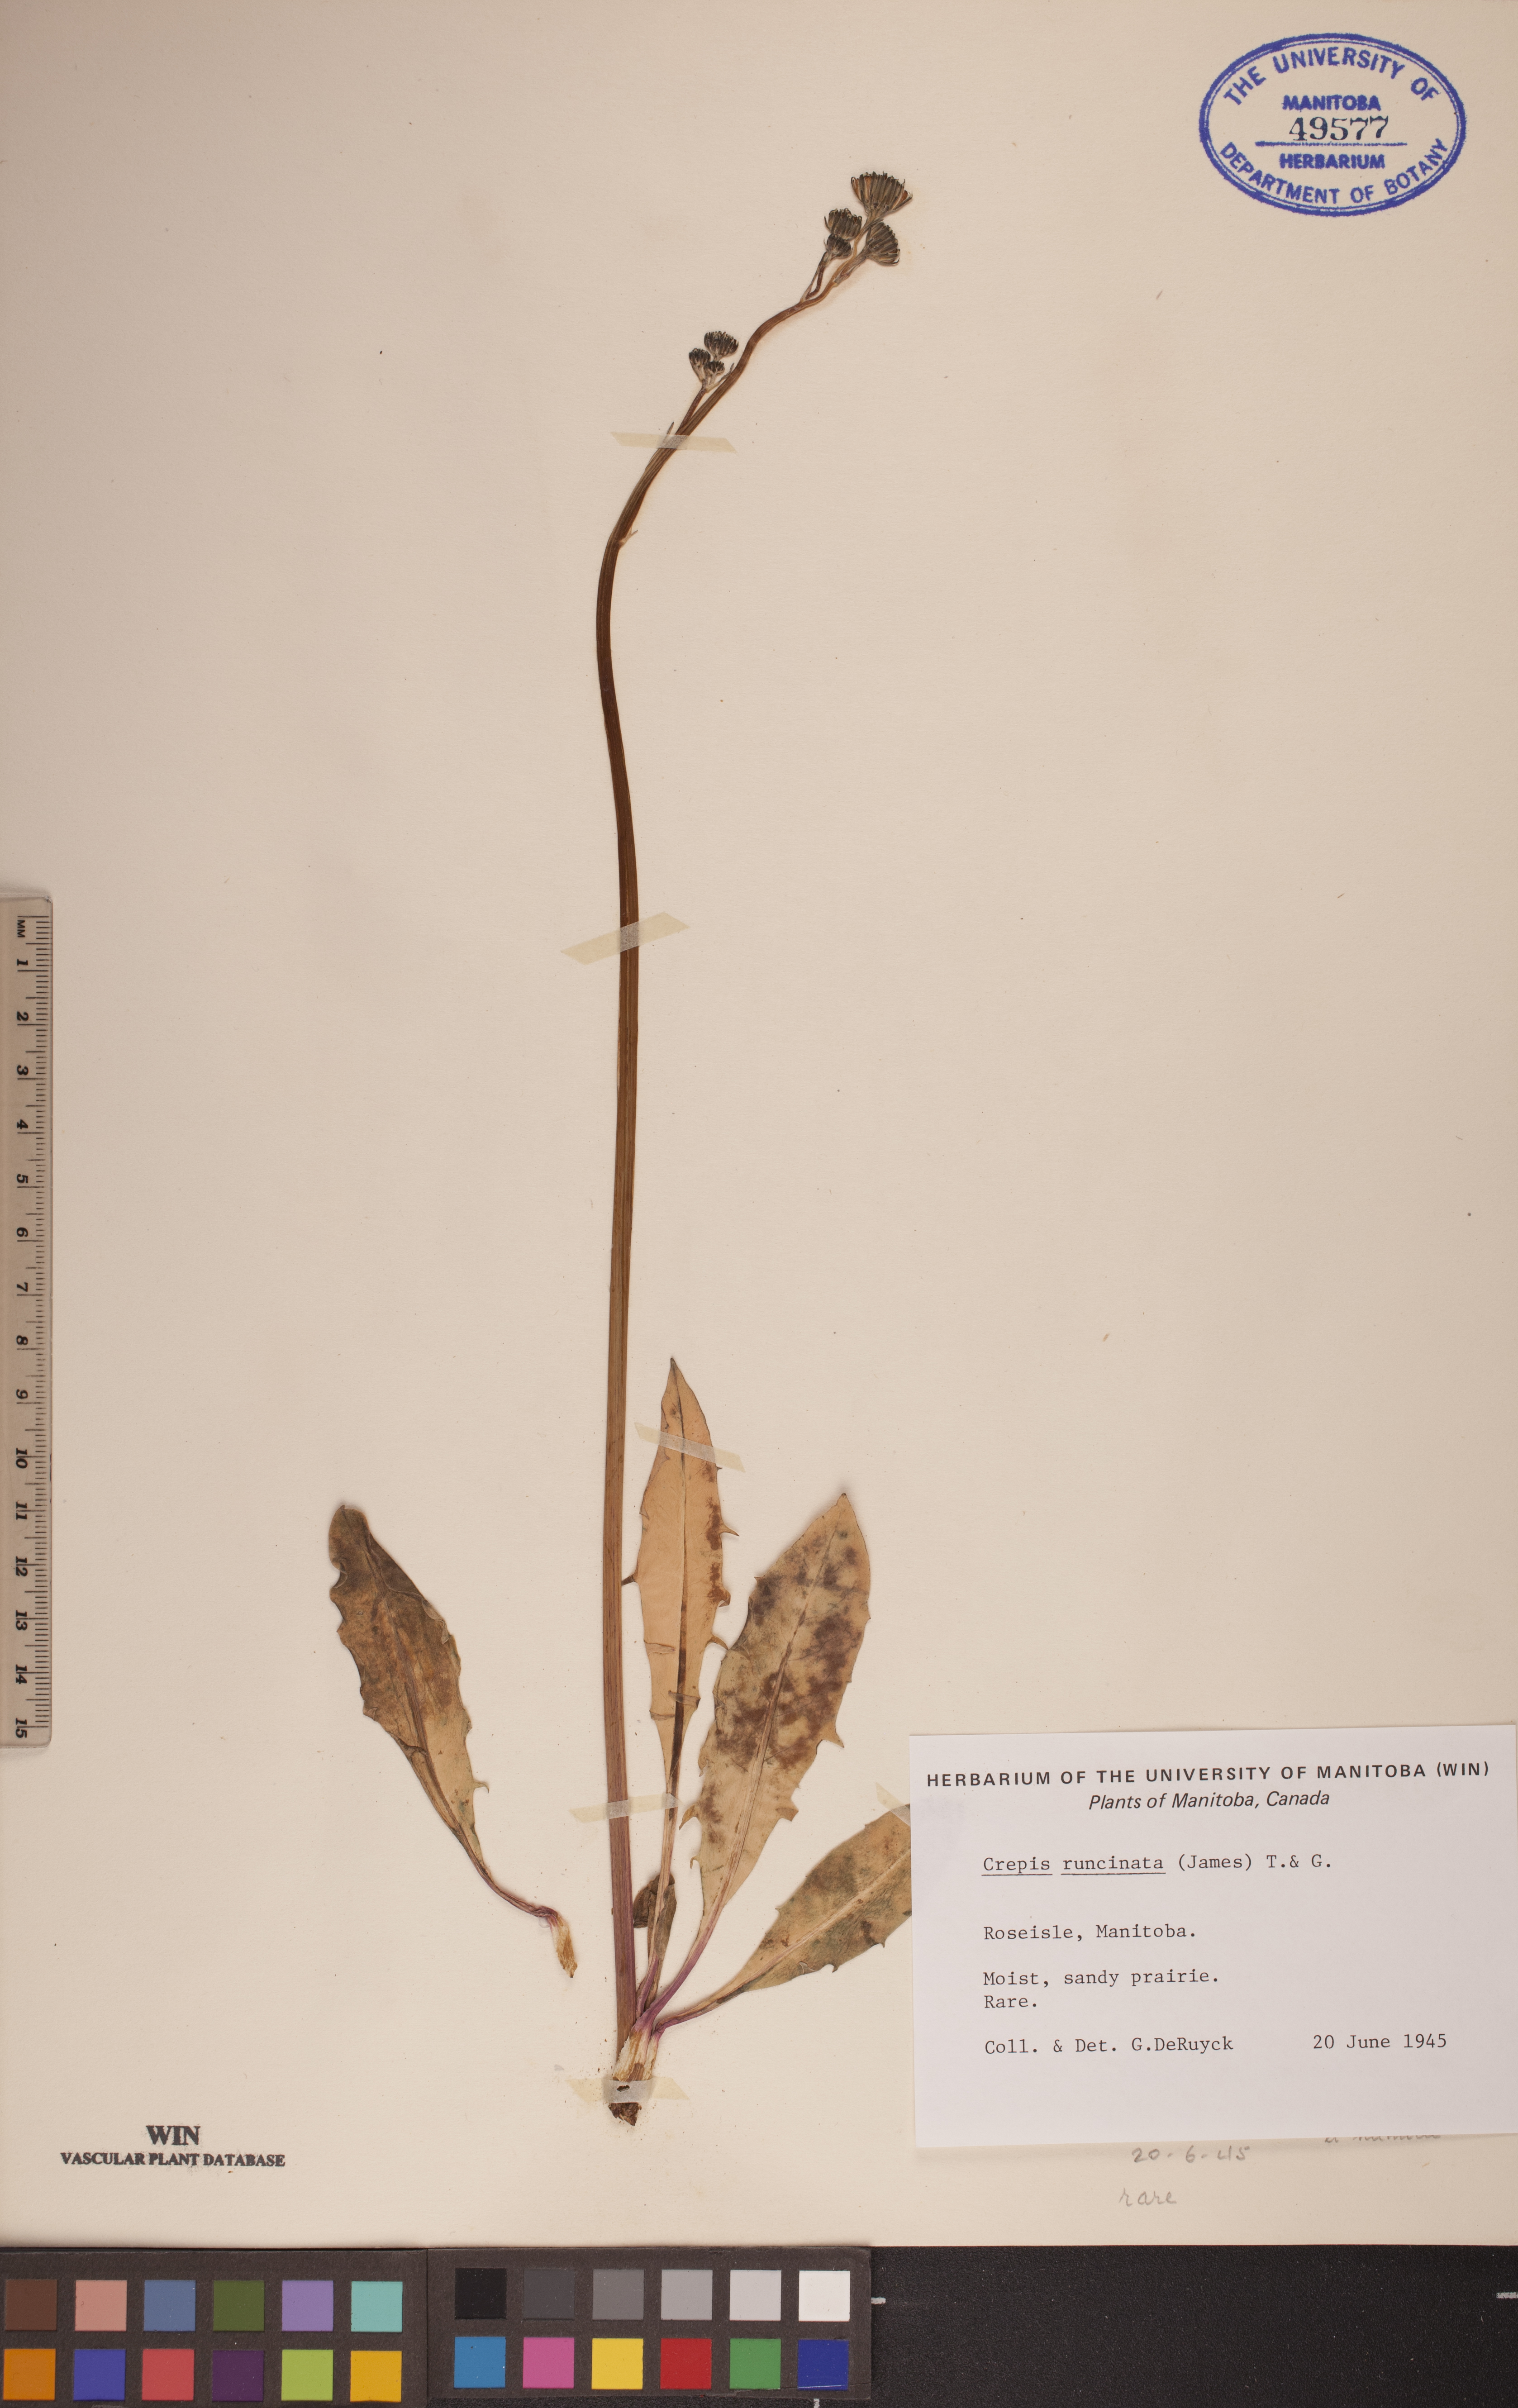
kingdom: Plantae
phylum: Tracheophyta
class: Magnoliopsida
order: Asterales
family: Asteraceae
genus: Crepis
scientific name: Crepis runcinata
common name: Dandelion hawksbeard
